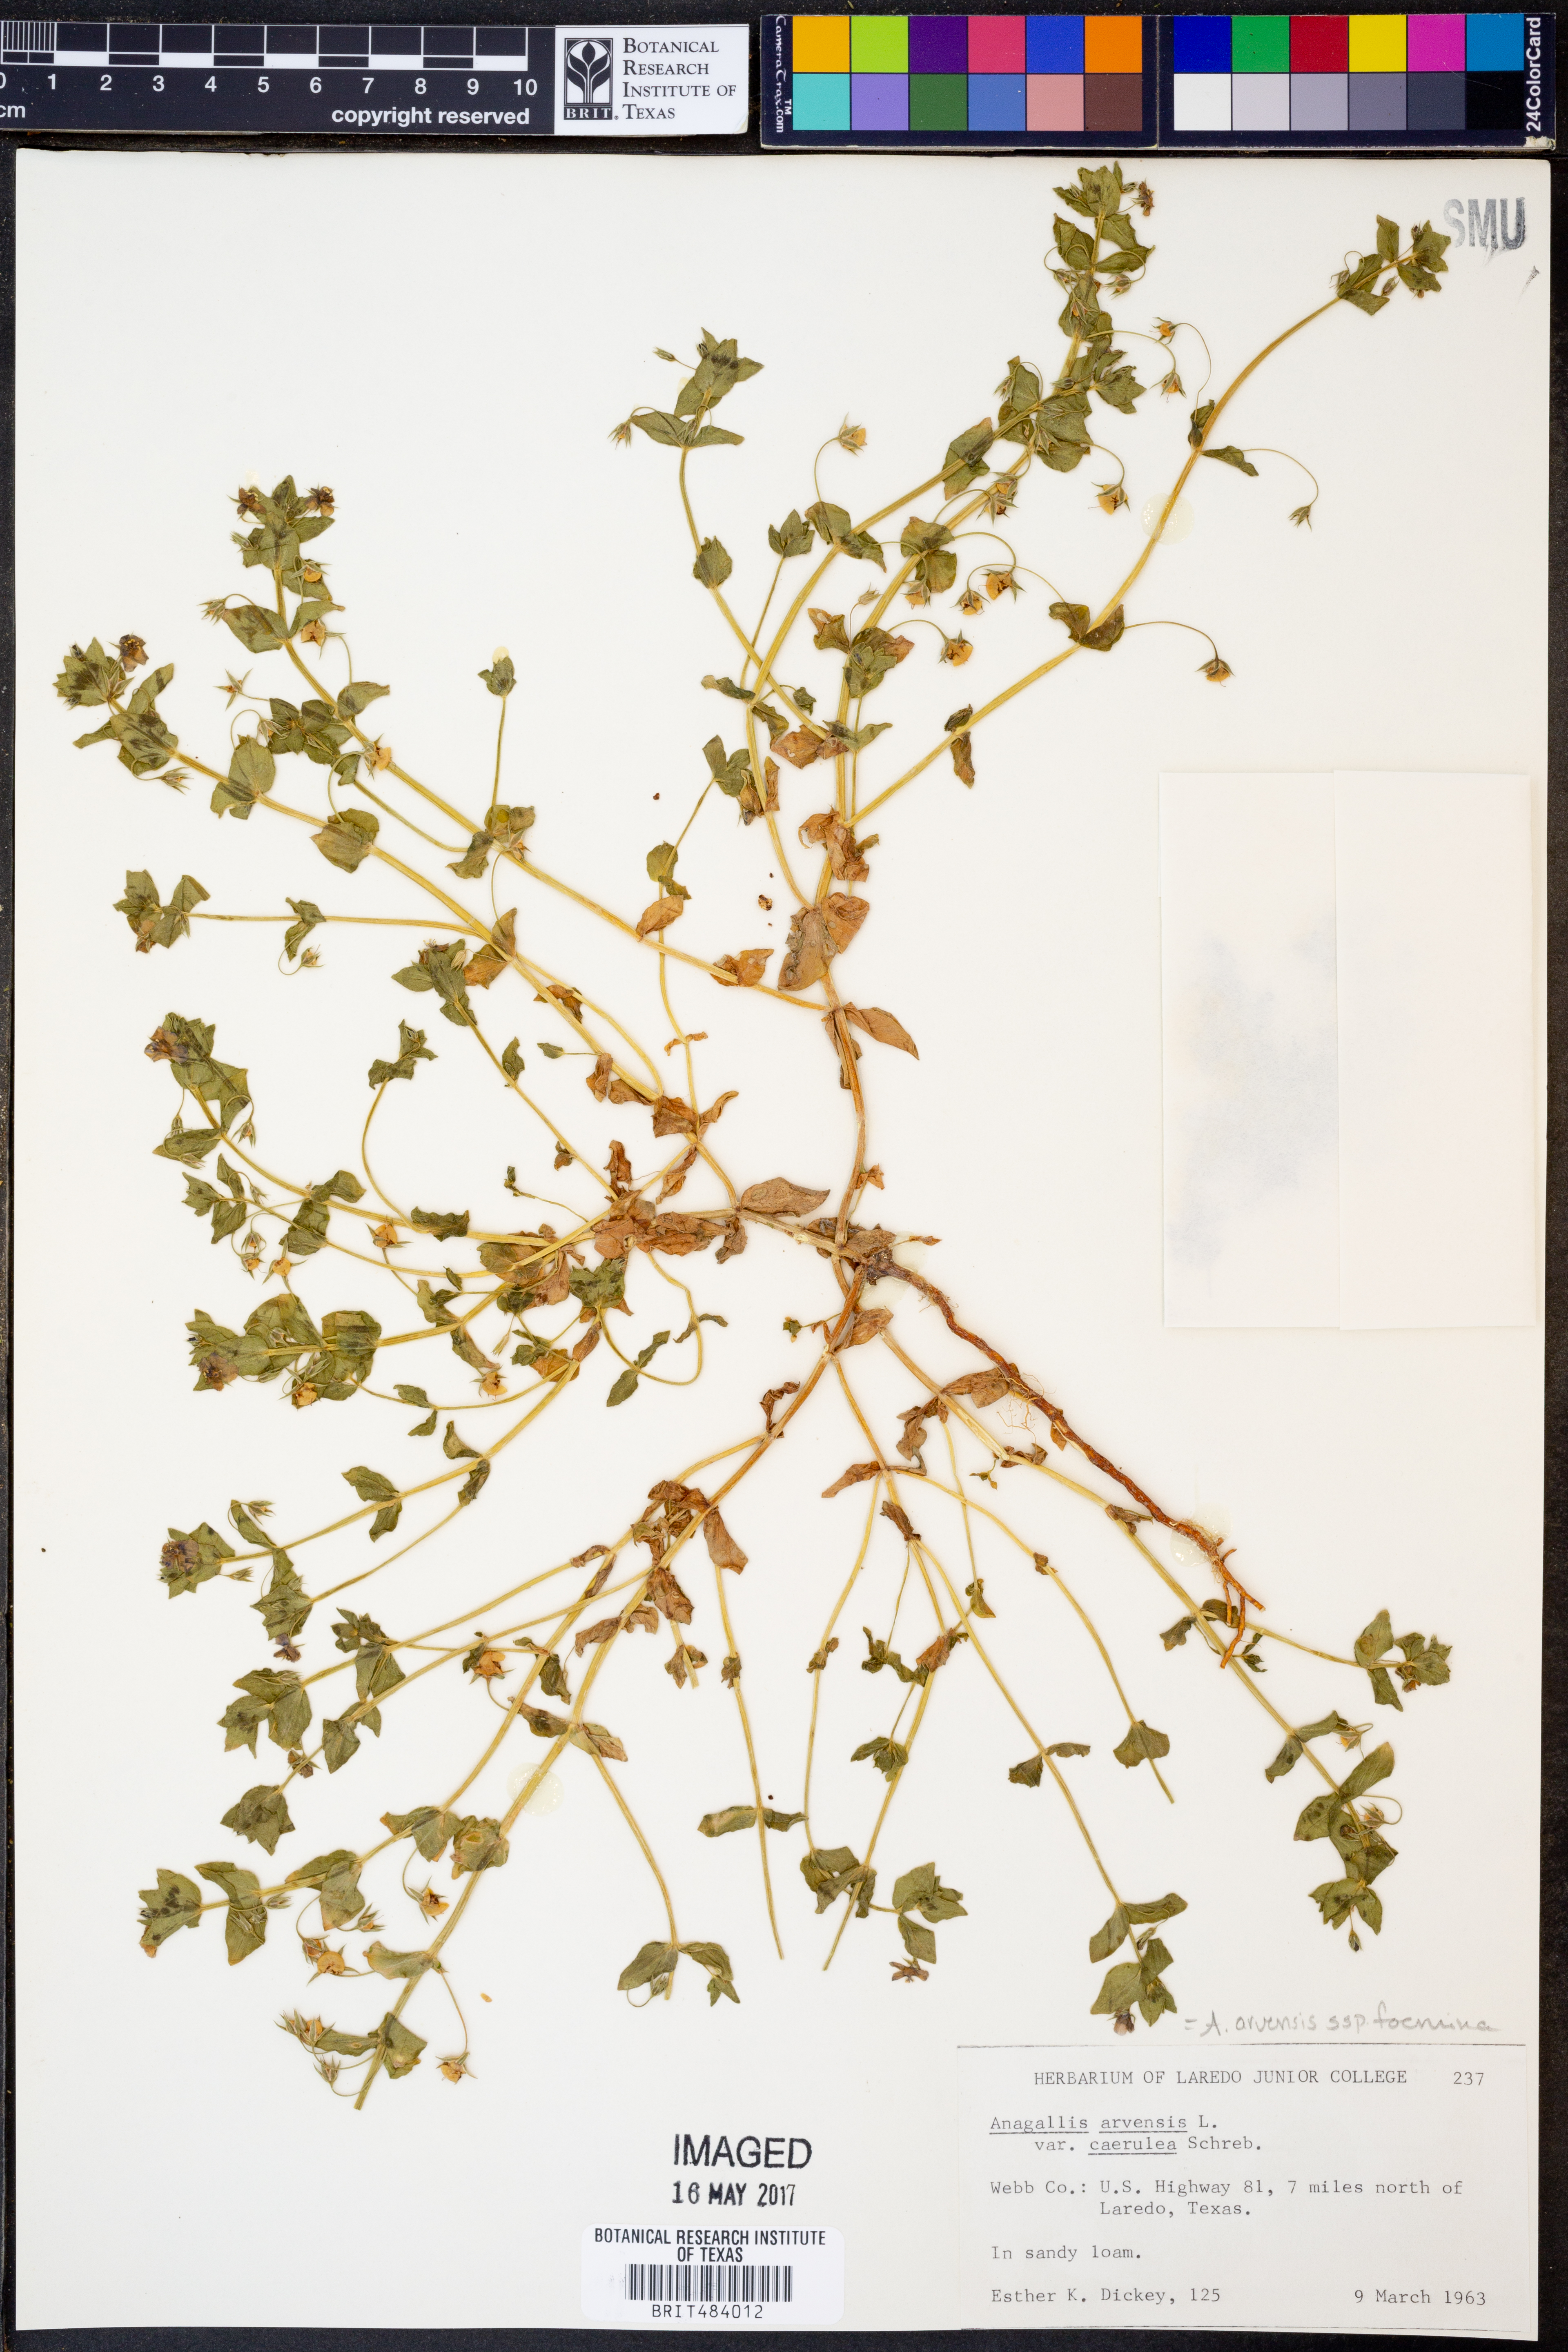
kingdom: Plantae
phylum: Tracheophyta
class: Magnoliopsida
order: Ericales
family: Primulaceae
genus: Lysimachia
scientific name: Lysimachia foemina
